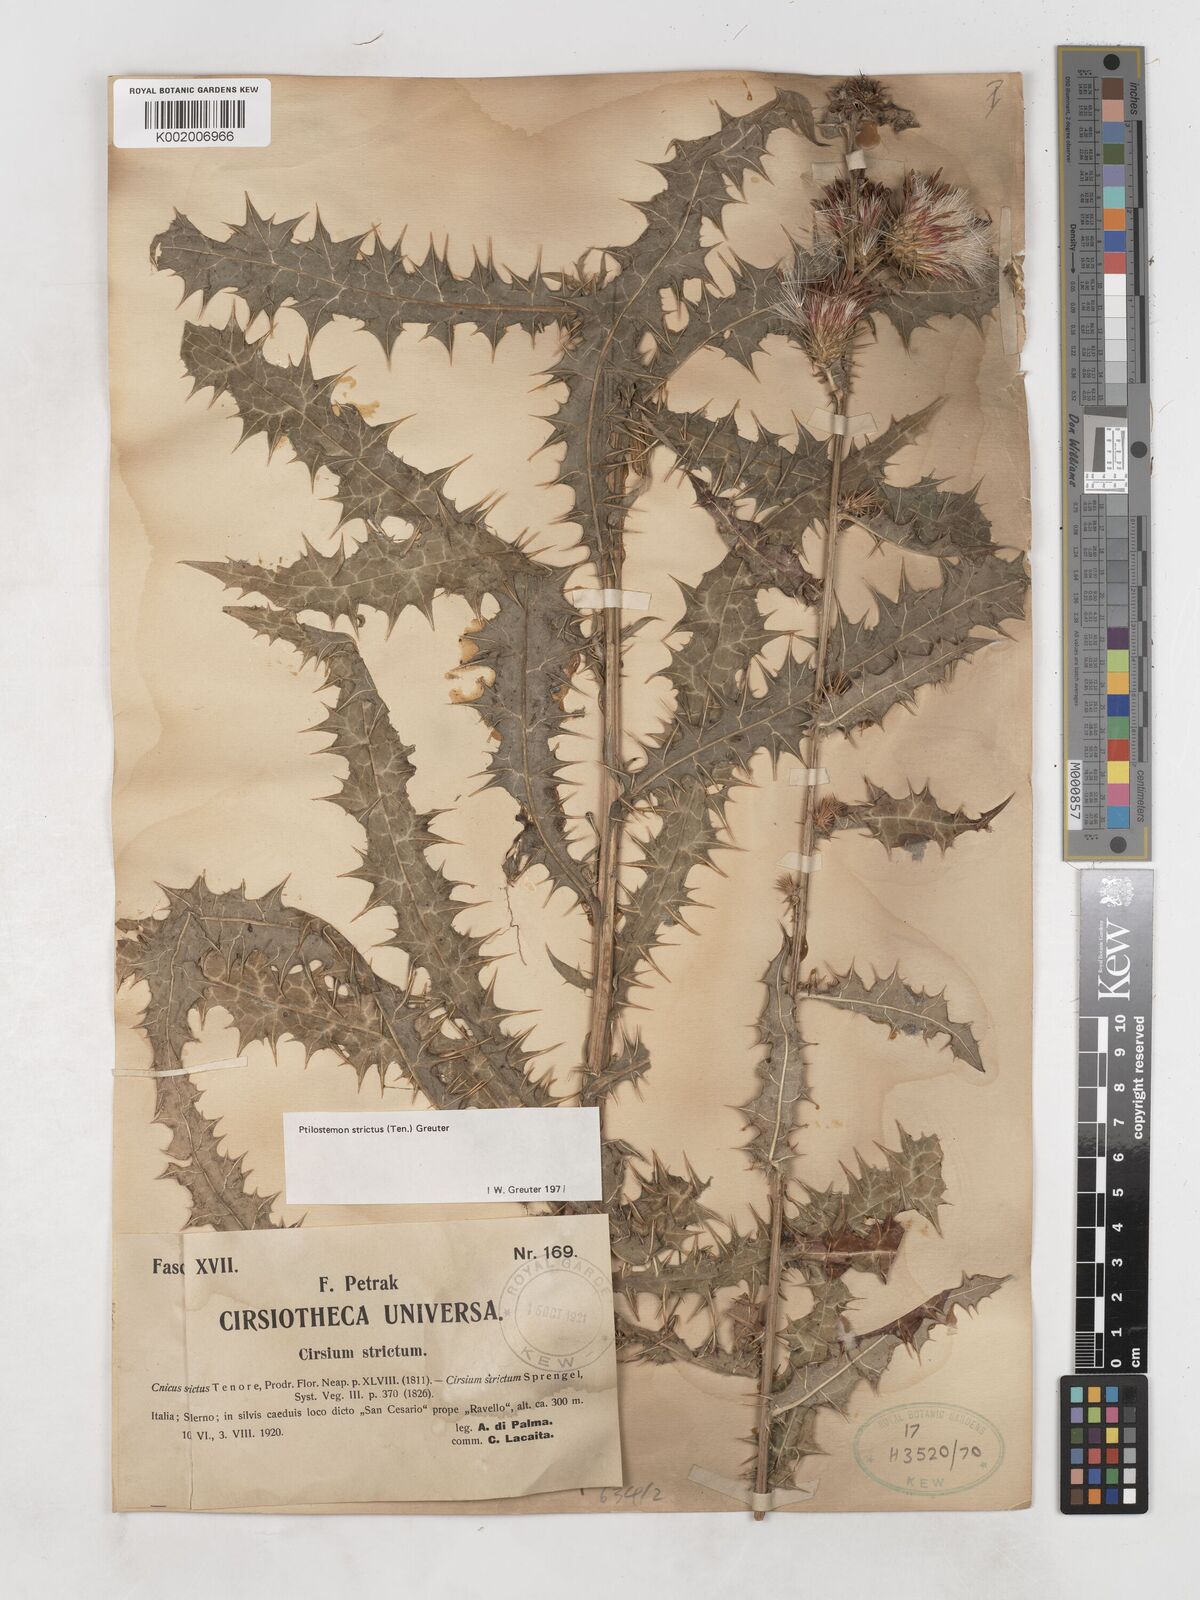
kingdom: Plantae
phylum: Tracheophyta
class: Magnoliopsida
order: Asterales
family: Asteraceae
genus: Ptilostemon
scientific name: Ptilostemon strictus
